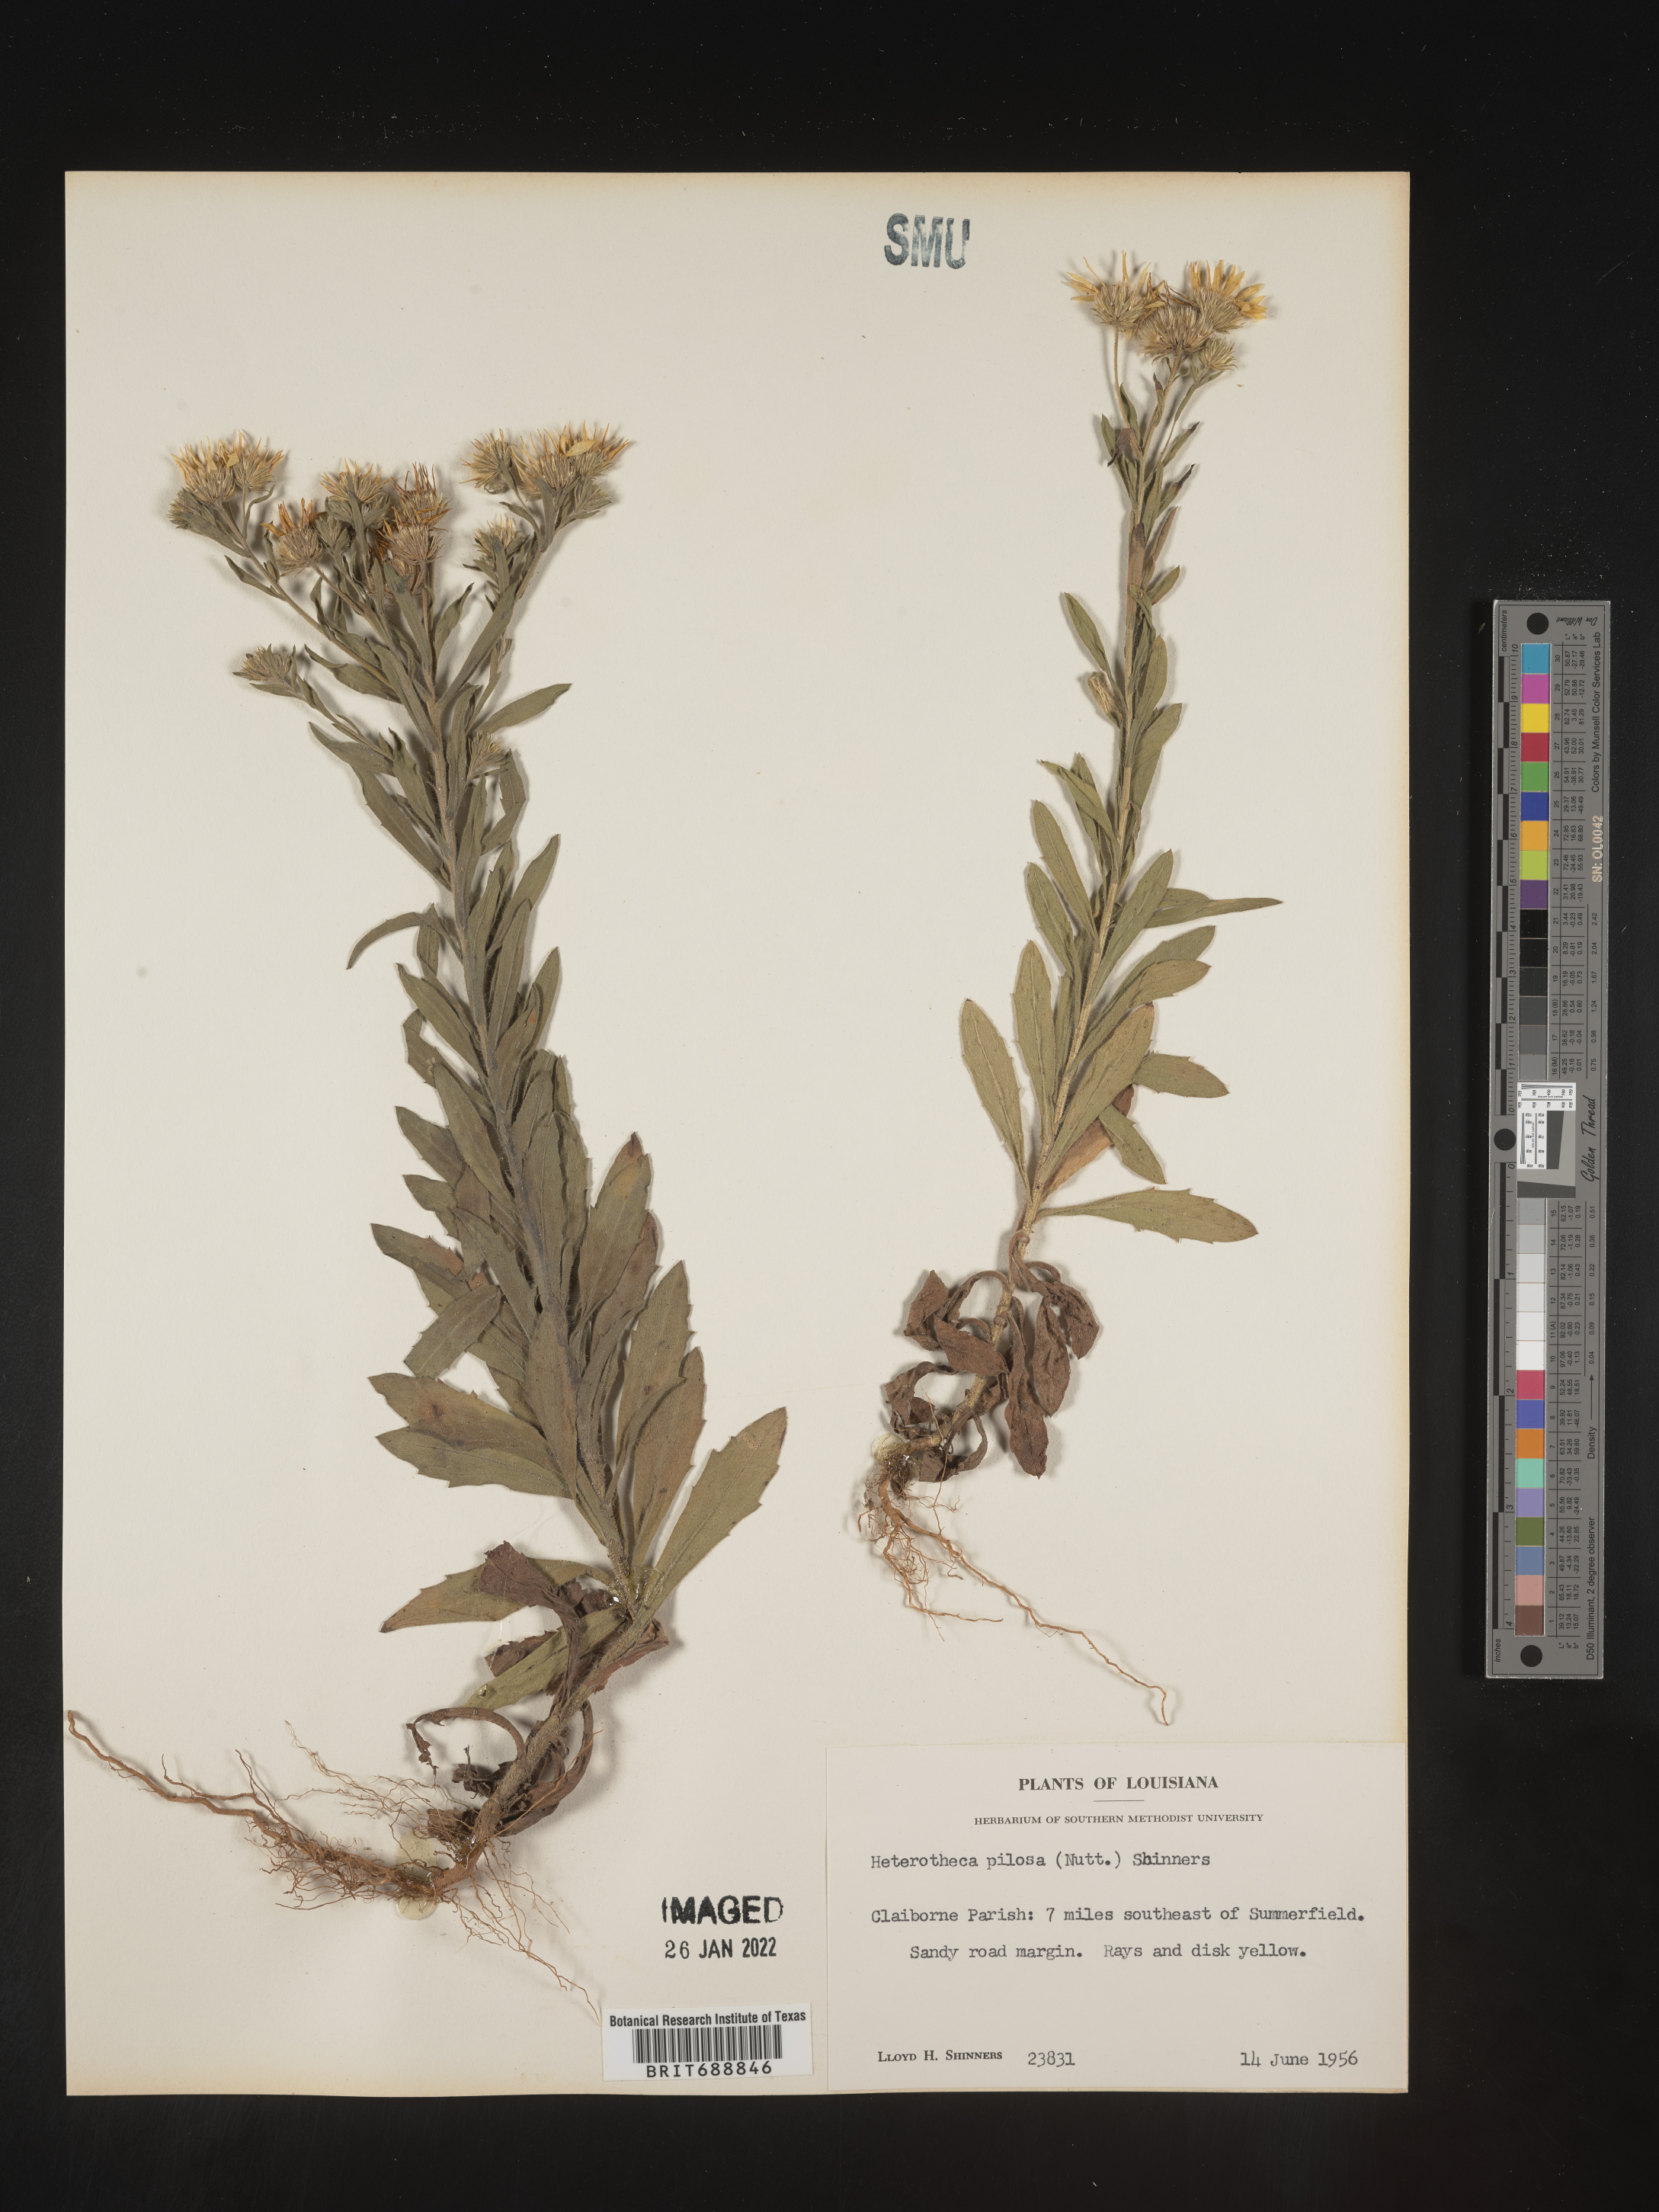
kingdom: Plantae
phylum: Tracheophyta
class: Magnoliopsida
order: Asterales
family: Asteraceae
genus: Bradburia
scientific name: Bradburia pilosa
